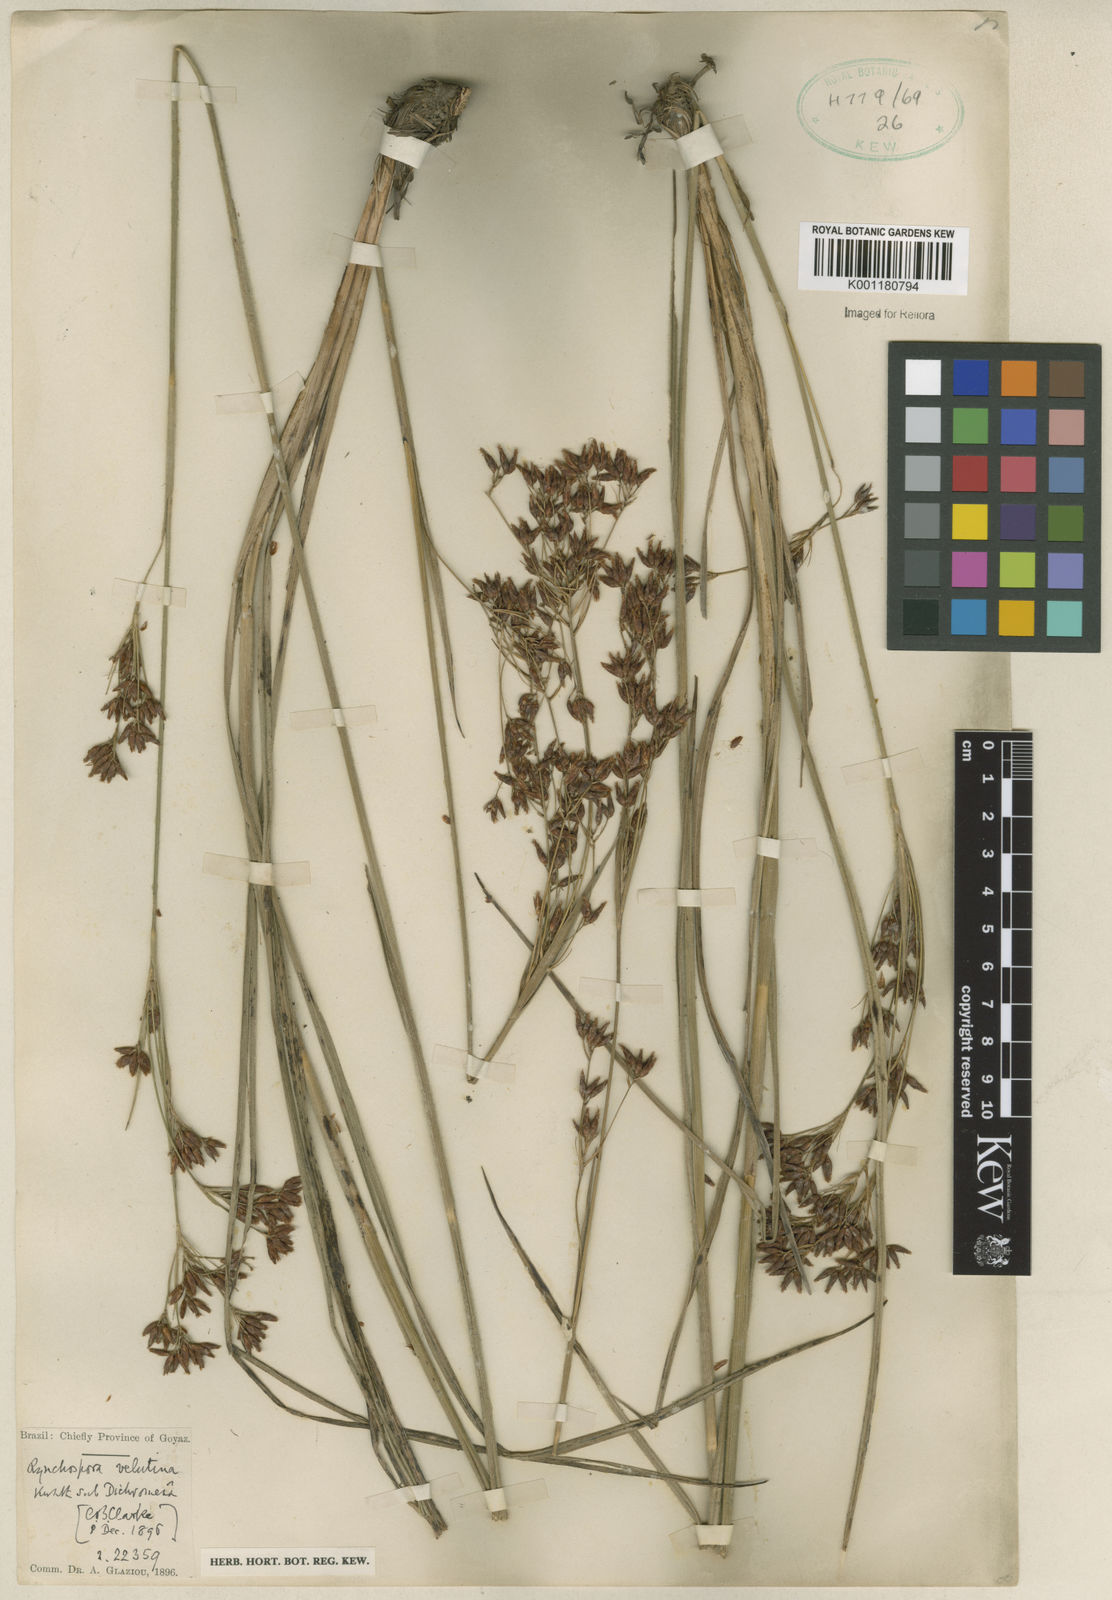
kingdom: Plantae
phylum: Tracheophyta
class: Liliopsida
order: Poales
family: Cyperaceae
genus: Rhynchospora
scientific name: Rhynchospora velutina
